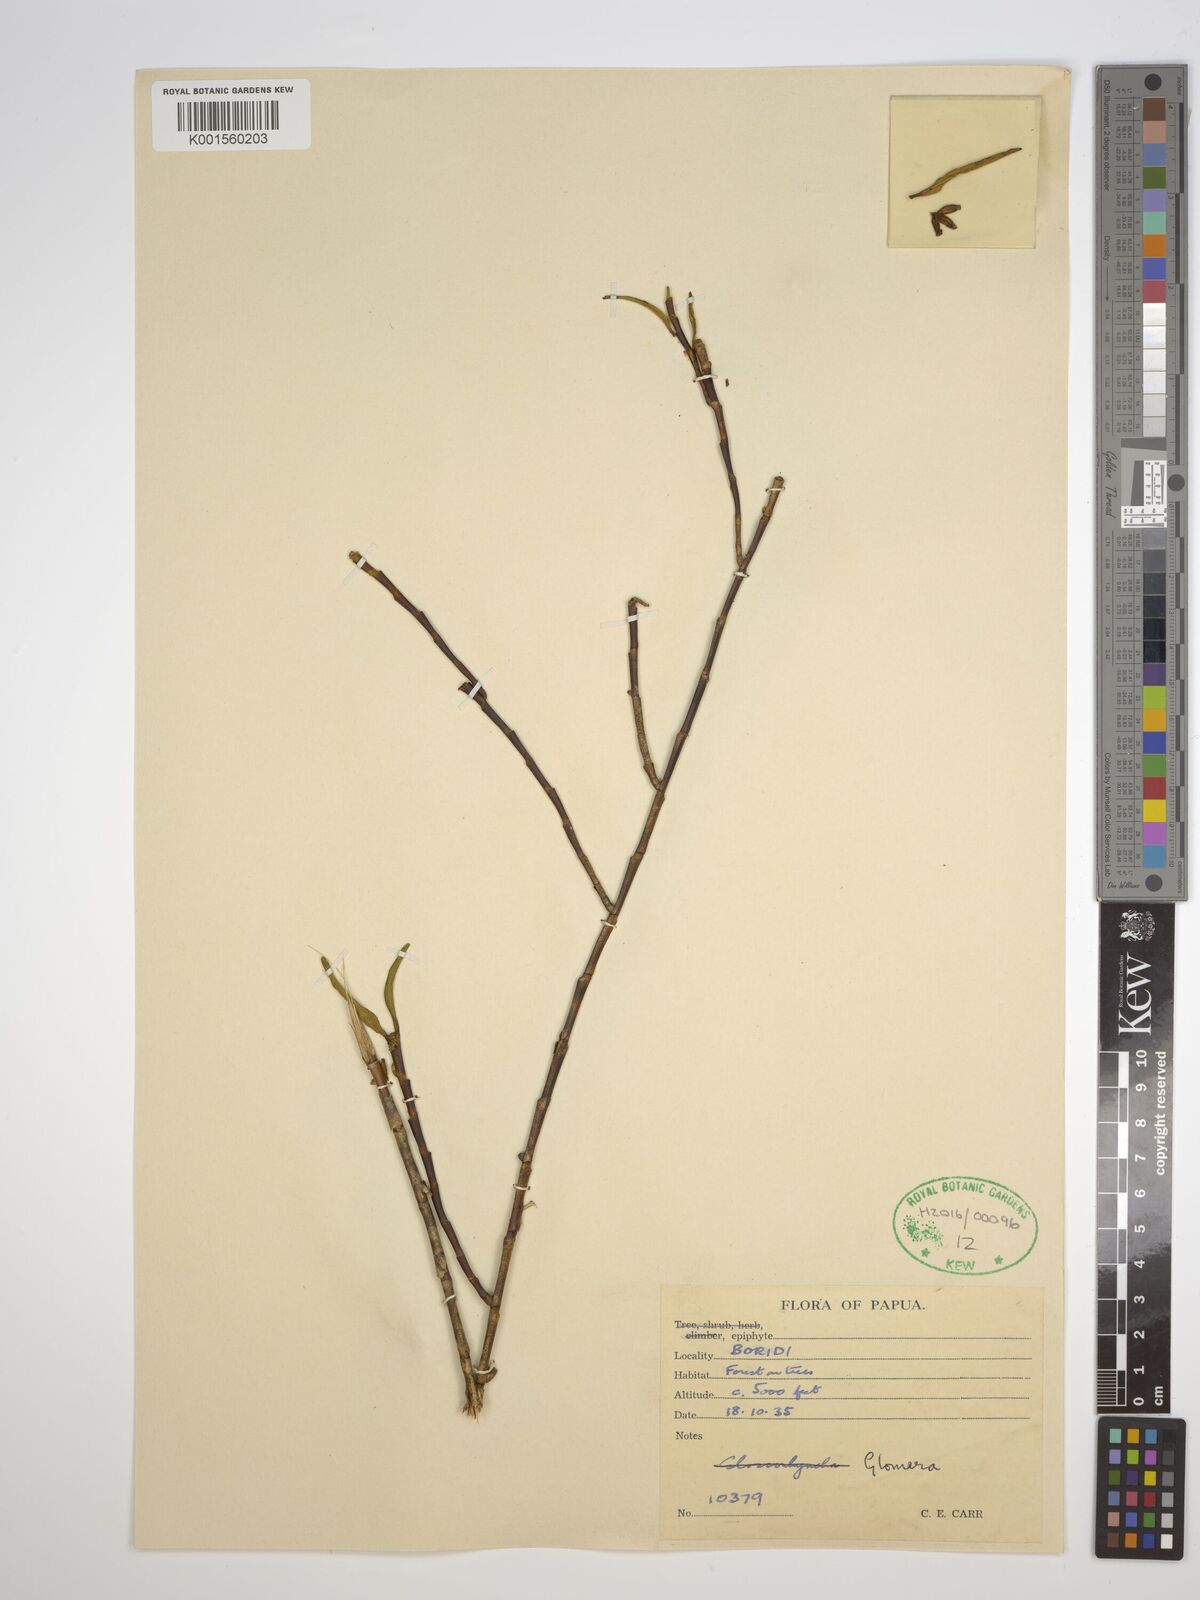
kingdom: Plantae
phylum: Tracheophyta
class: Liliopsida
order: Asparagales
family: Orchidaceae
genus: Glomera
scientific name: Glomera
